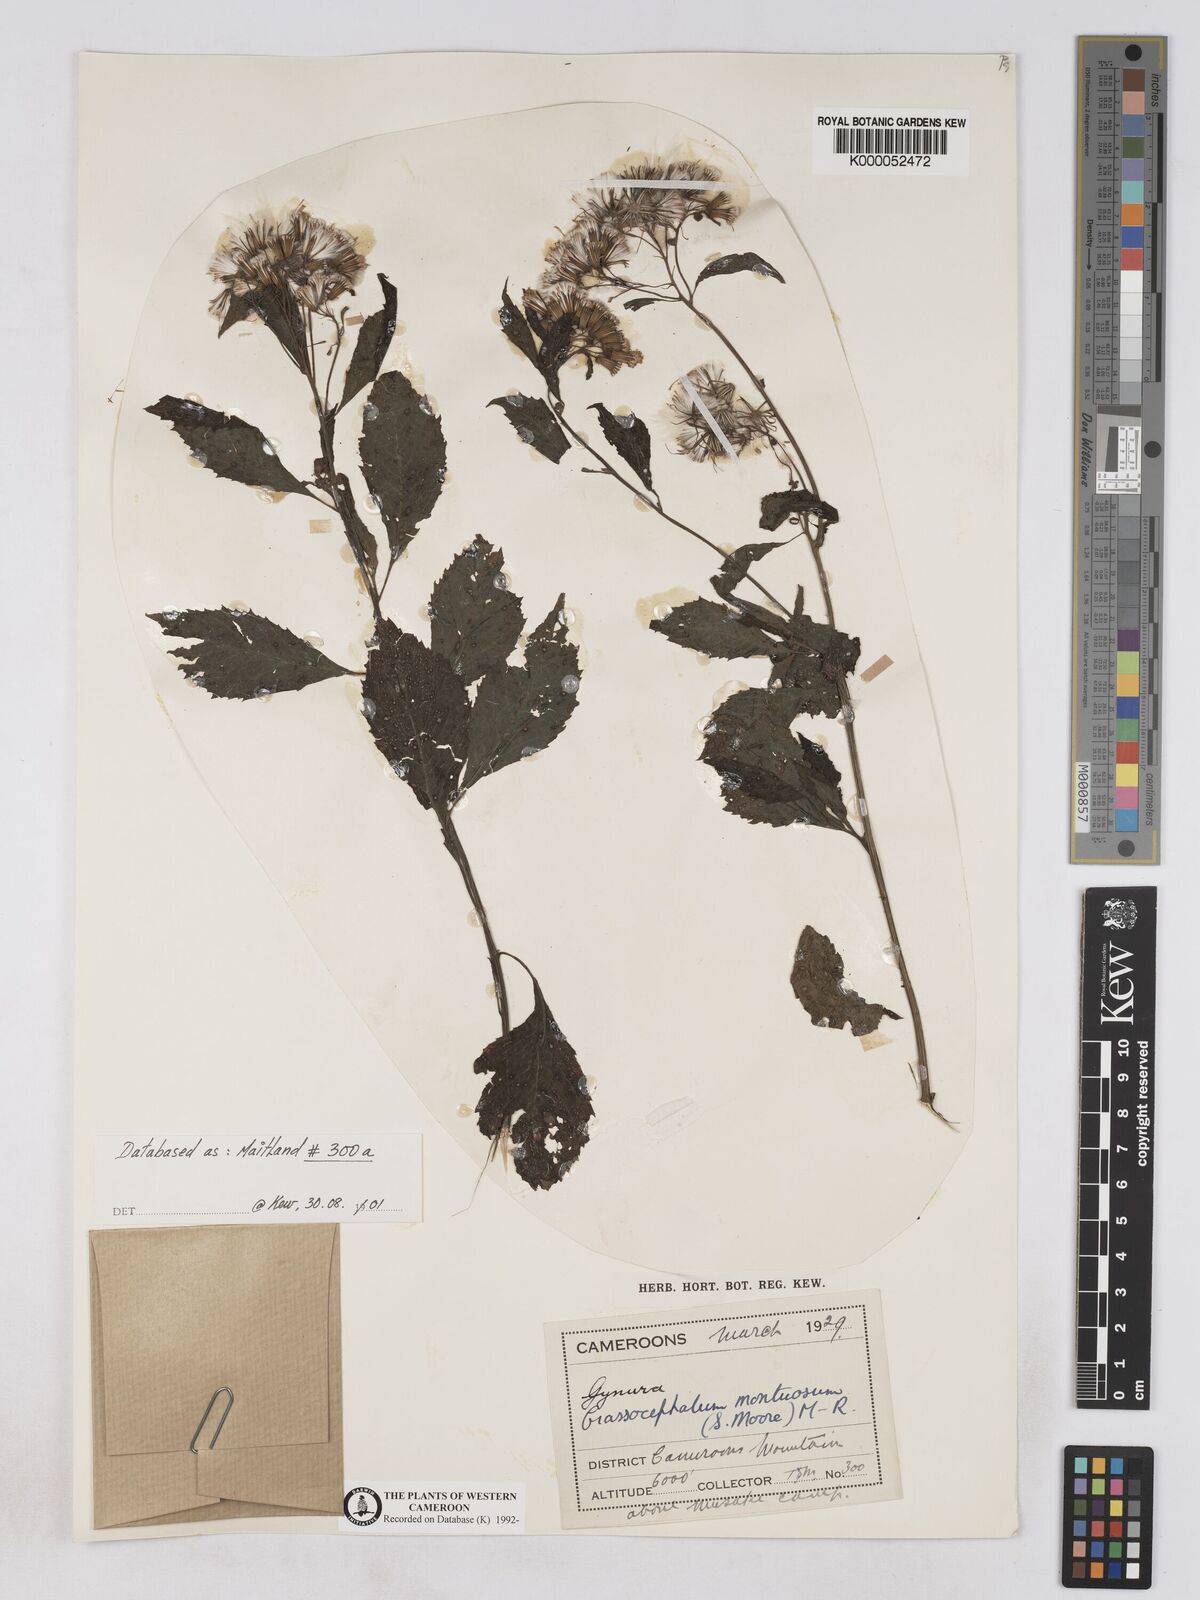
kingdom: Plantae
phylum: Tracheophyta
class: Magnoliopsida
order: Asterales
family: Asteraceae
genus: Crassocephalum
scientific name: Crassocephalum montuosum
